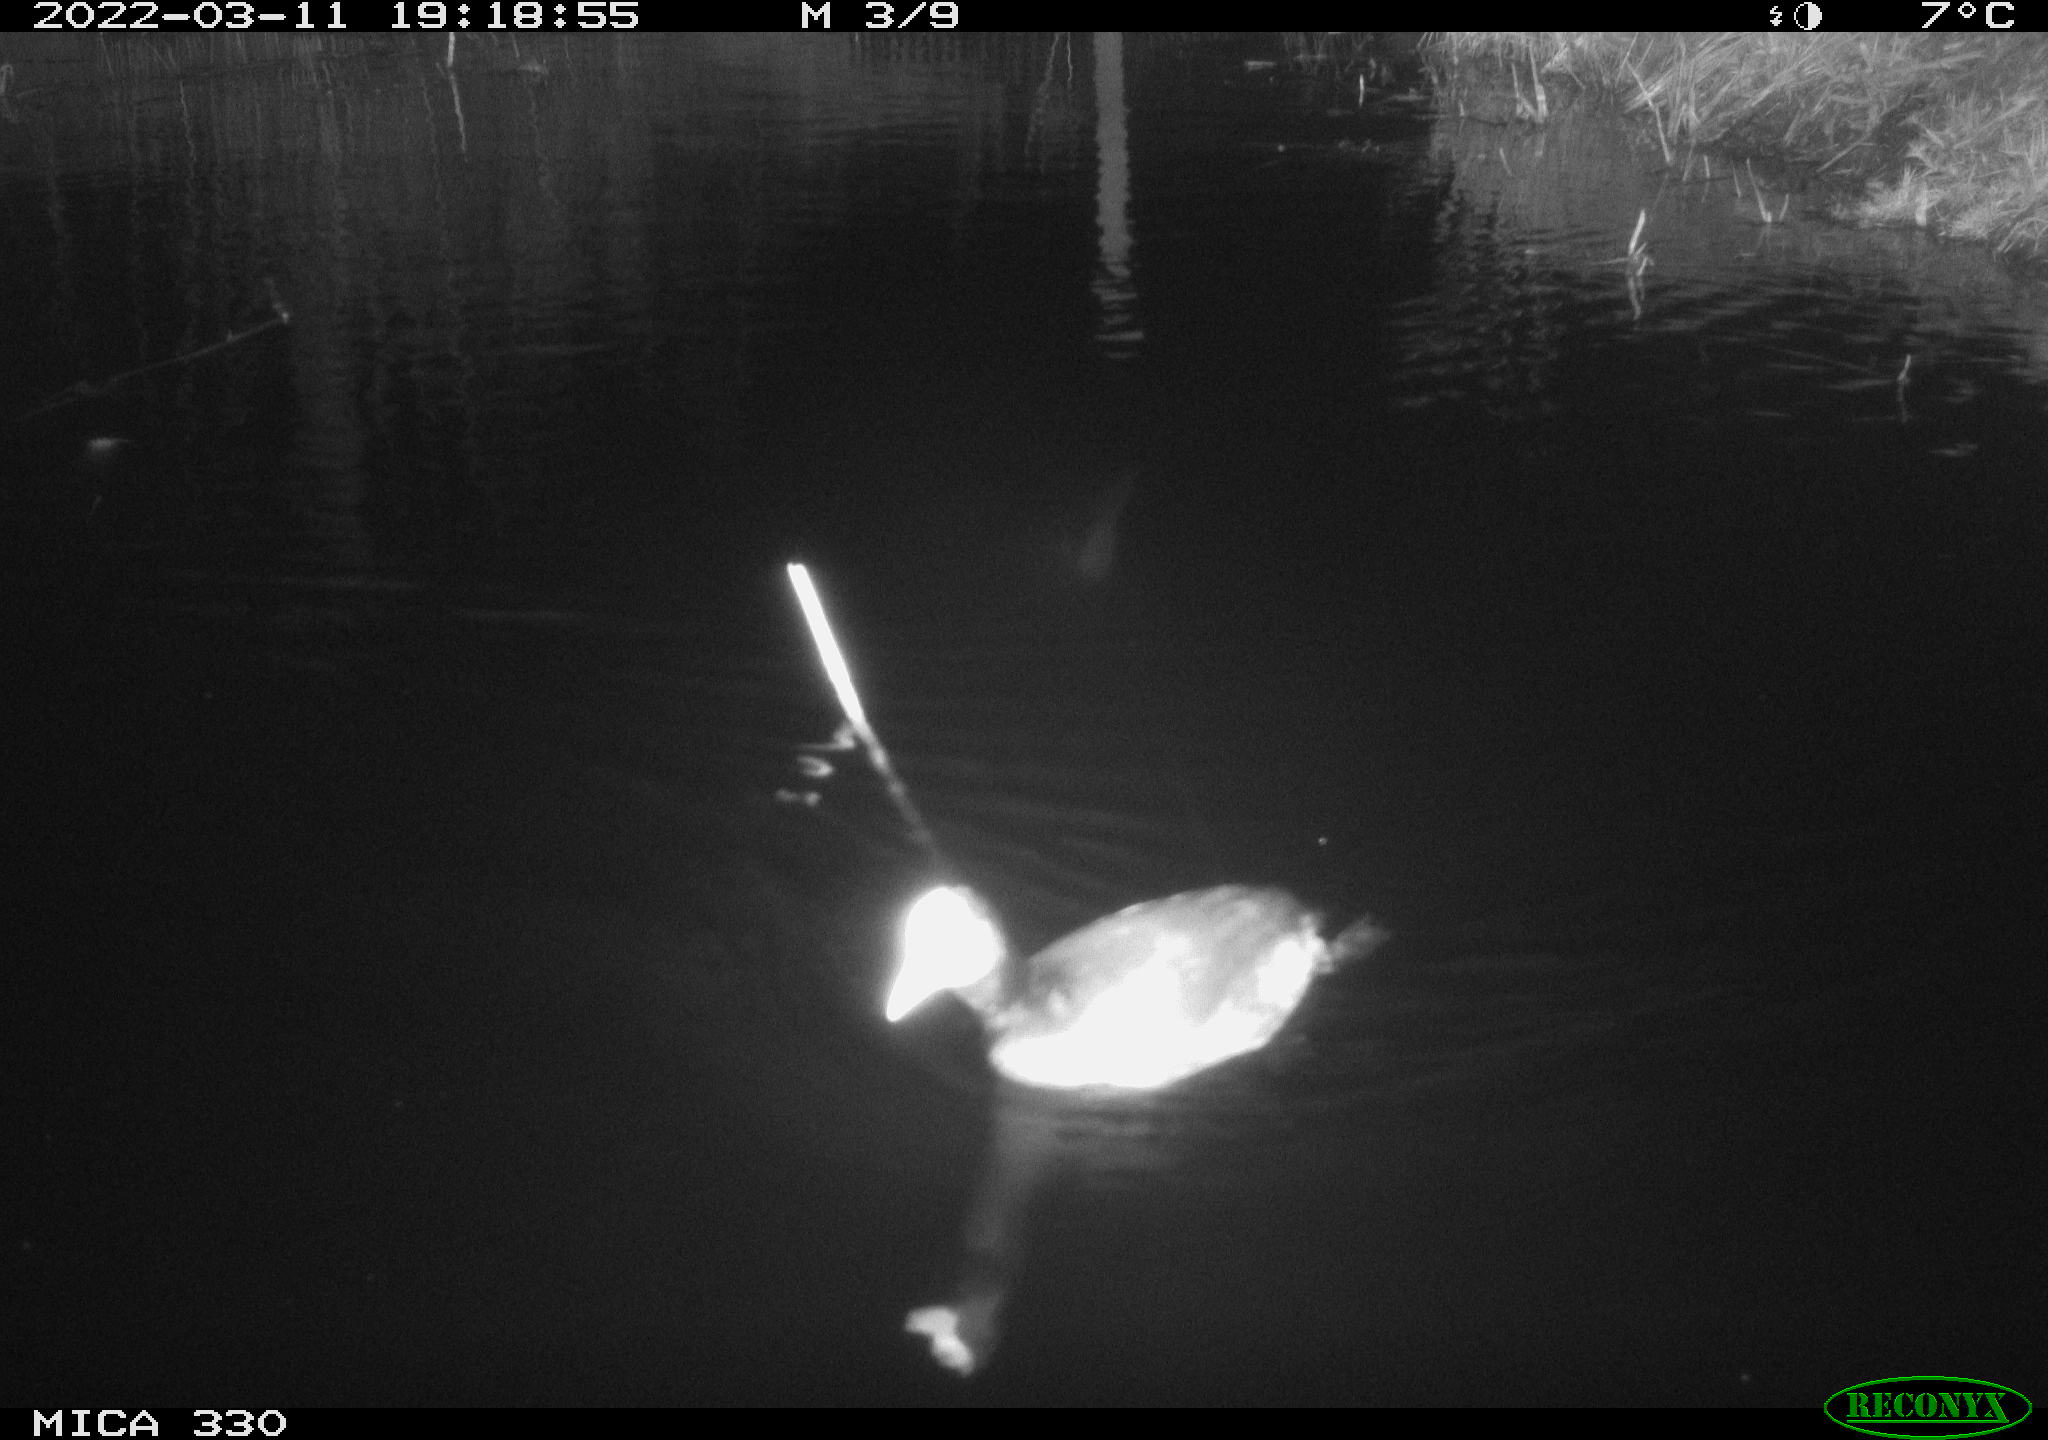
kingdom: Animalia
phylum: Chordata
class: Aves
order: Gruiformes
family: Rallidae
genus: Fulica
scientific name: Fulica atra
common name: Eurasian coot
